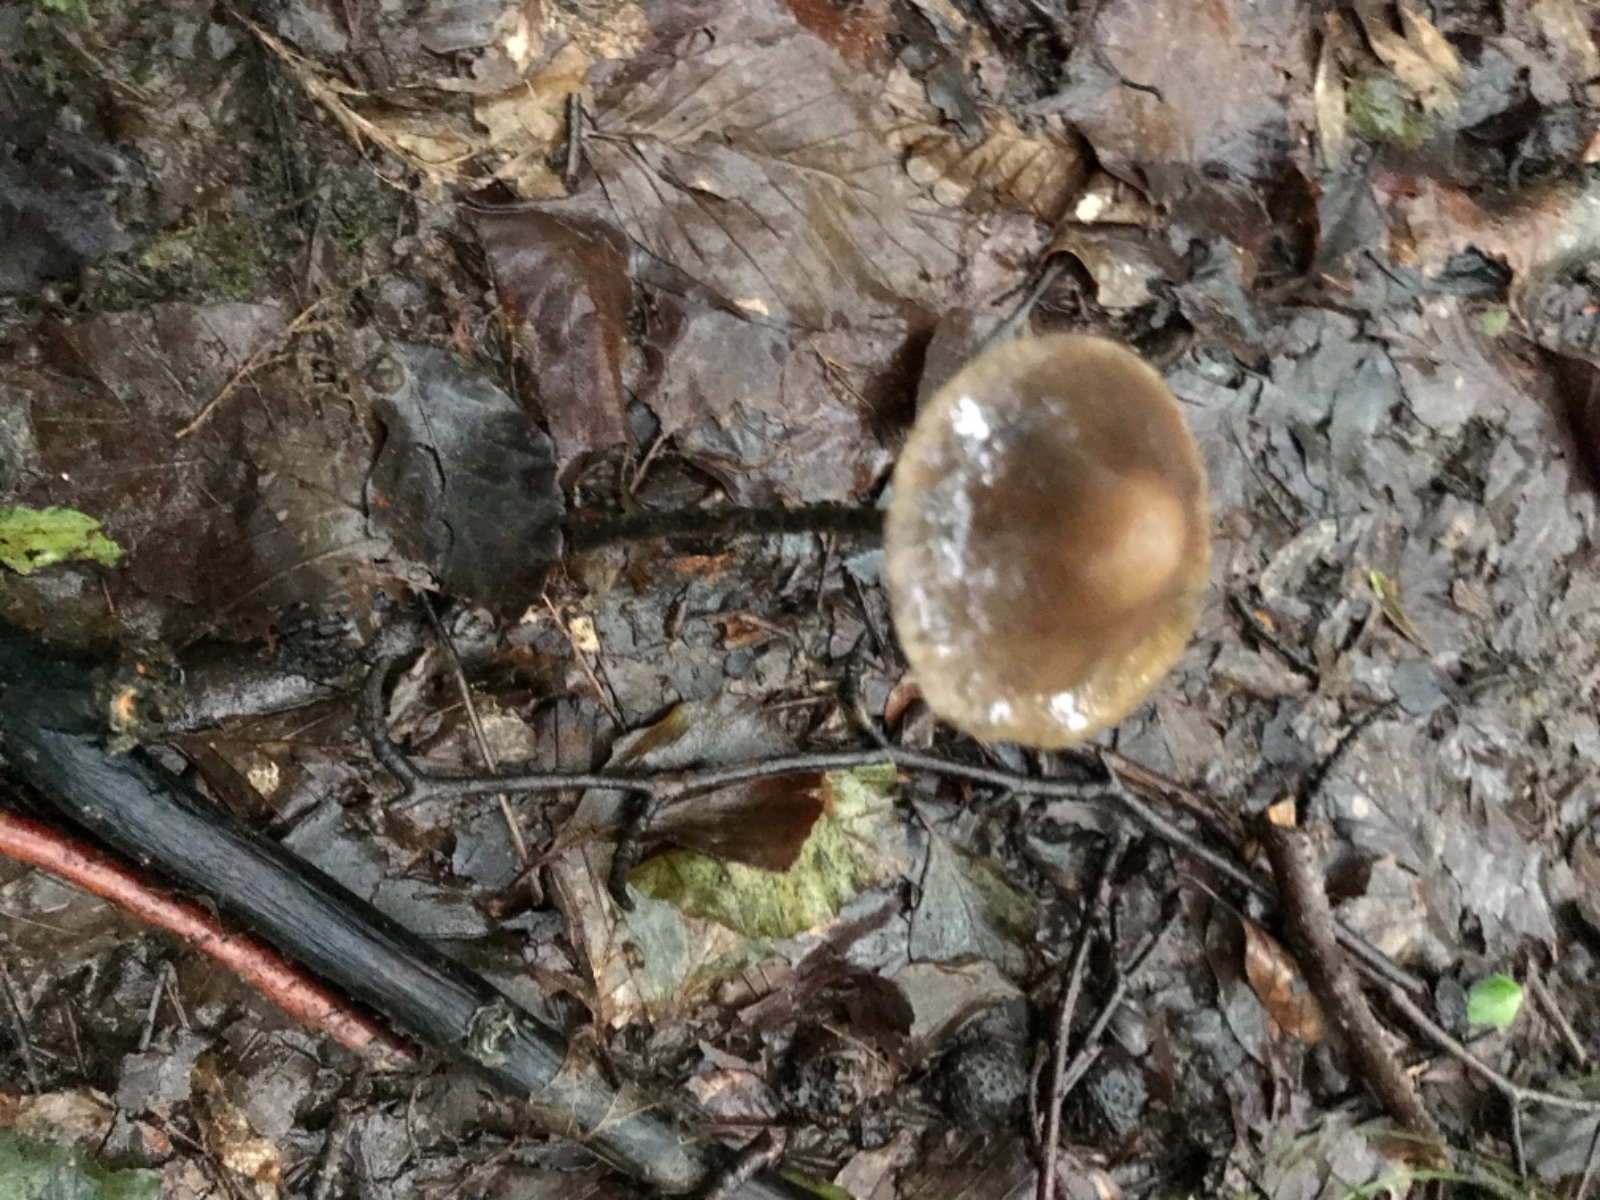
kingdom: Fungi
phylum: Basidiomycota
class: Agaricomycetes
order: Agaricales
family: Omphalotaceae
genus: Mycetinis
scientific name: Mycetinis alliaceus
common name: stor løghat
